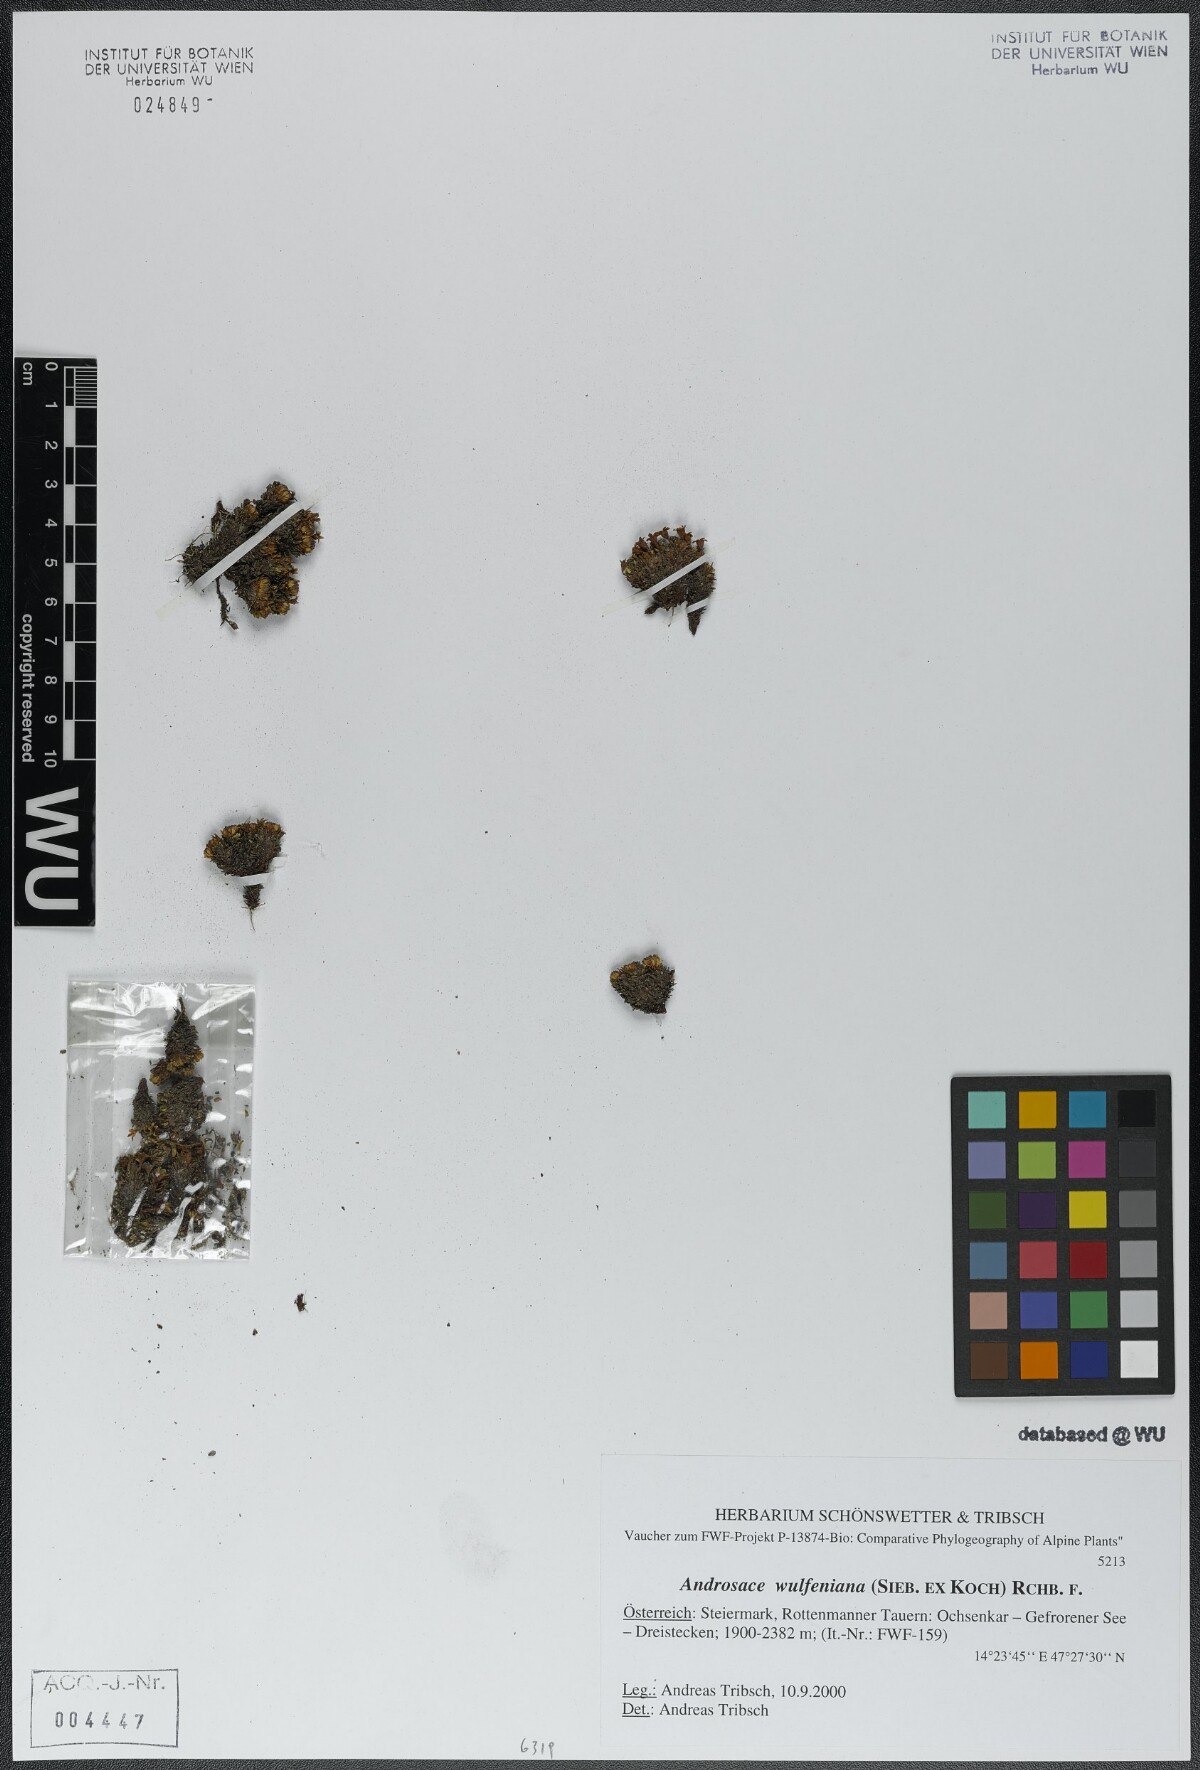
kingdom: Plantae
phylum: Tracheophyta
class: Magnoliopsida
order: Ericales
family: Primulaceae
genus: Androsace
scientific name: Androsace wulfeniana
